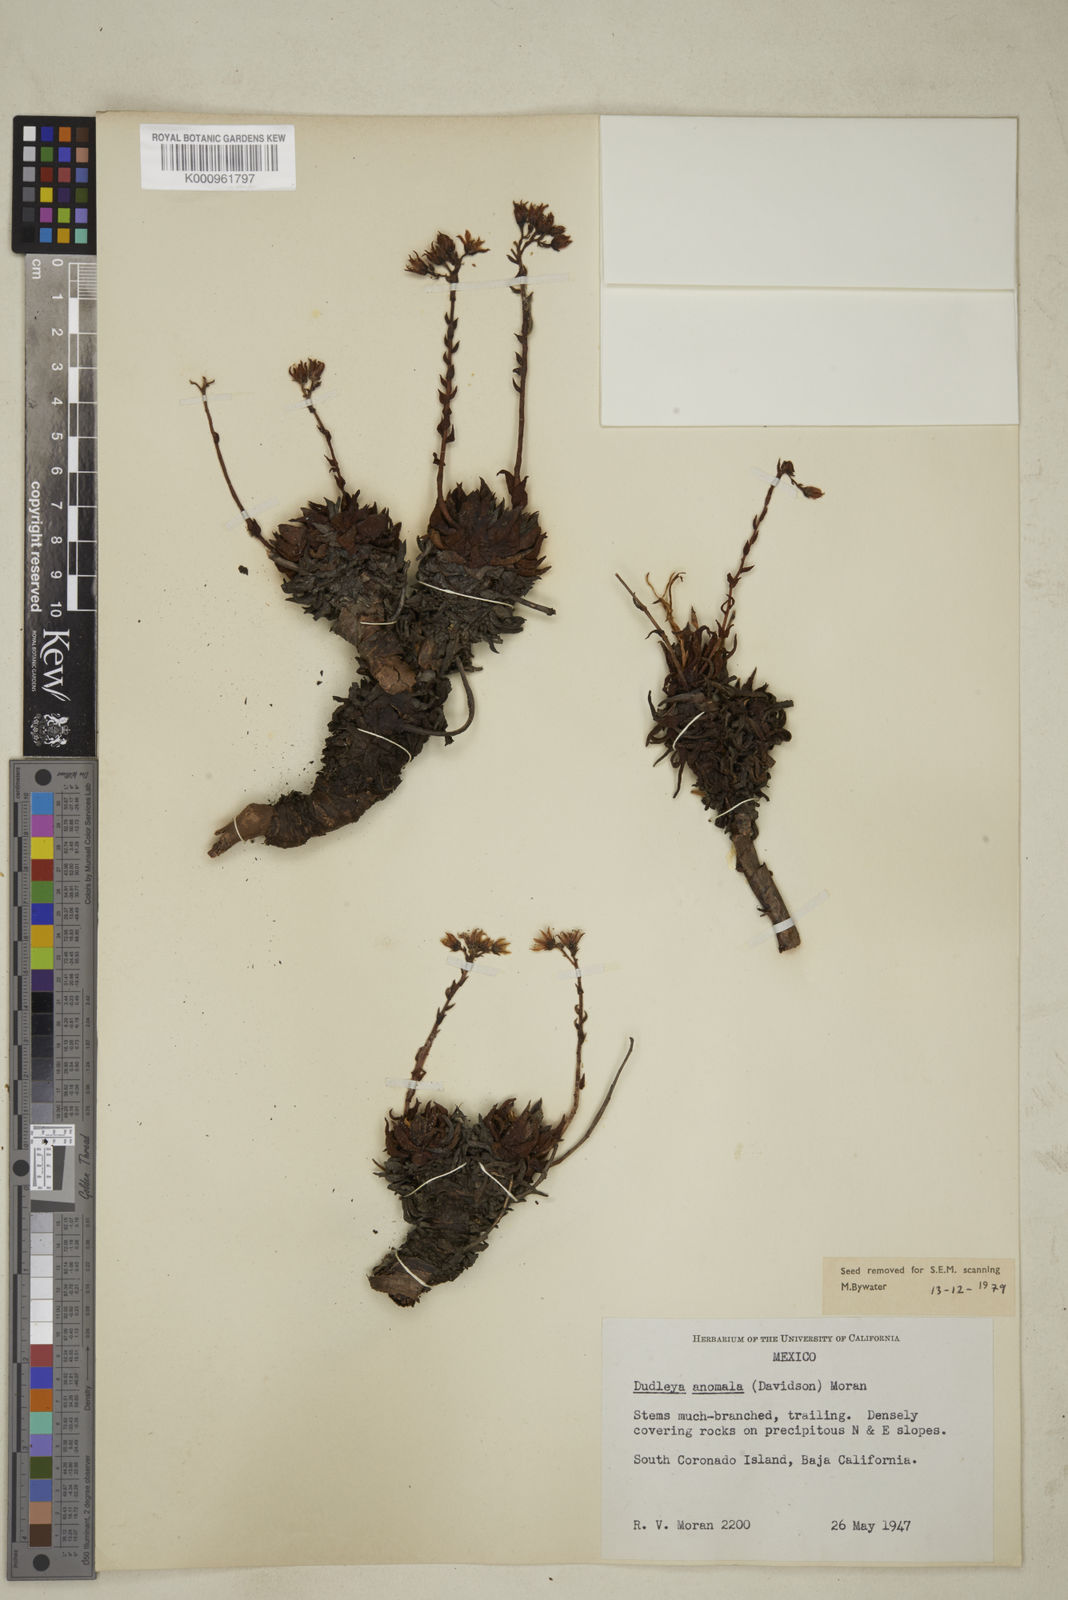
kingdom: Plantae
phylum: Tracheophyta
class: Magnoliopsida
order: Saxifragales
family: Crassulaceae
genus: Dudleya
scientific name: Dudleya anomala
